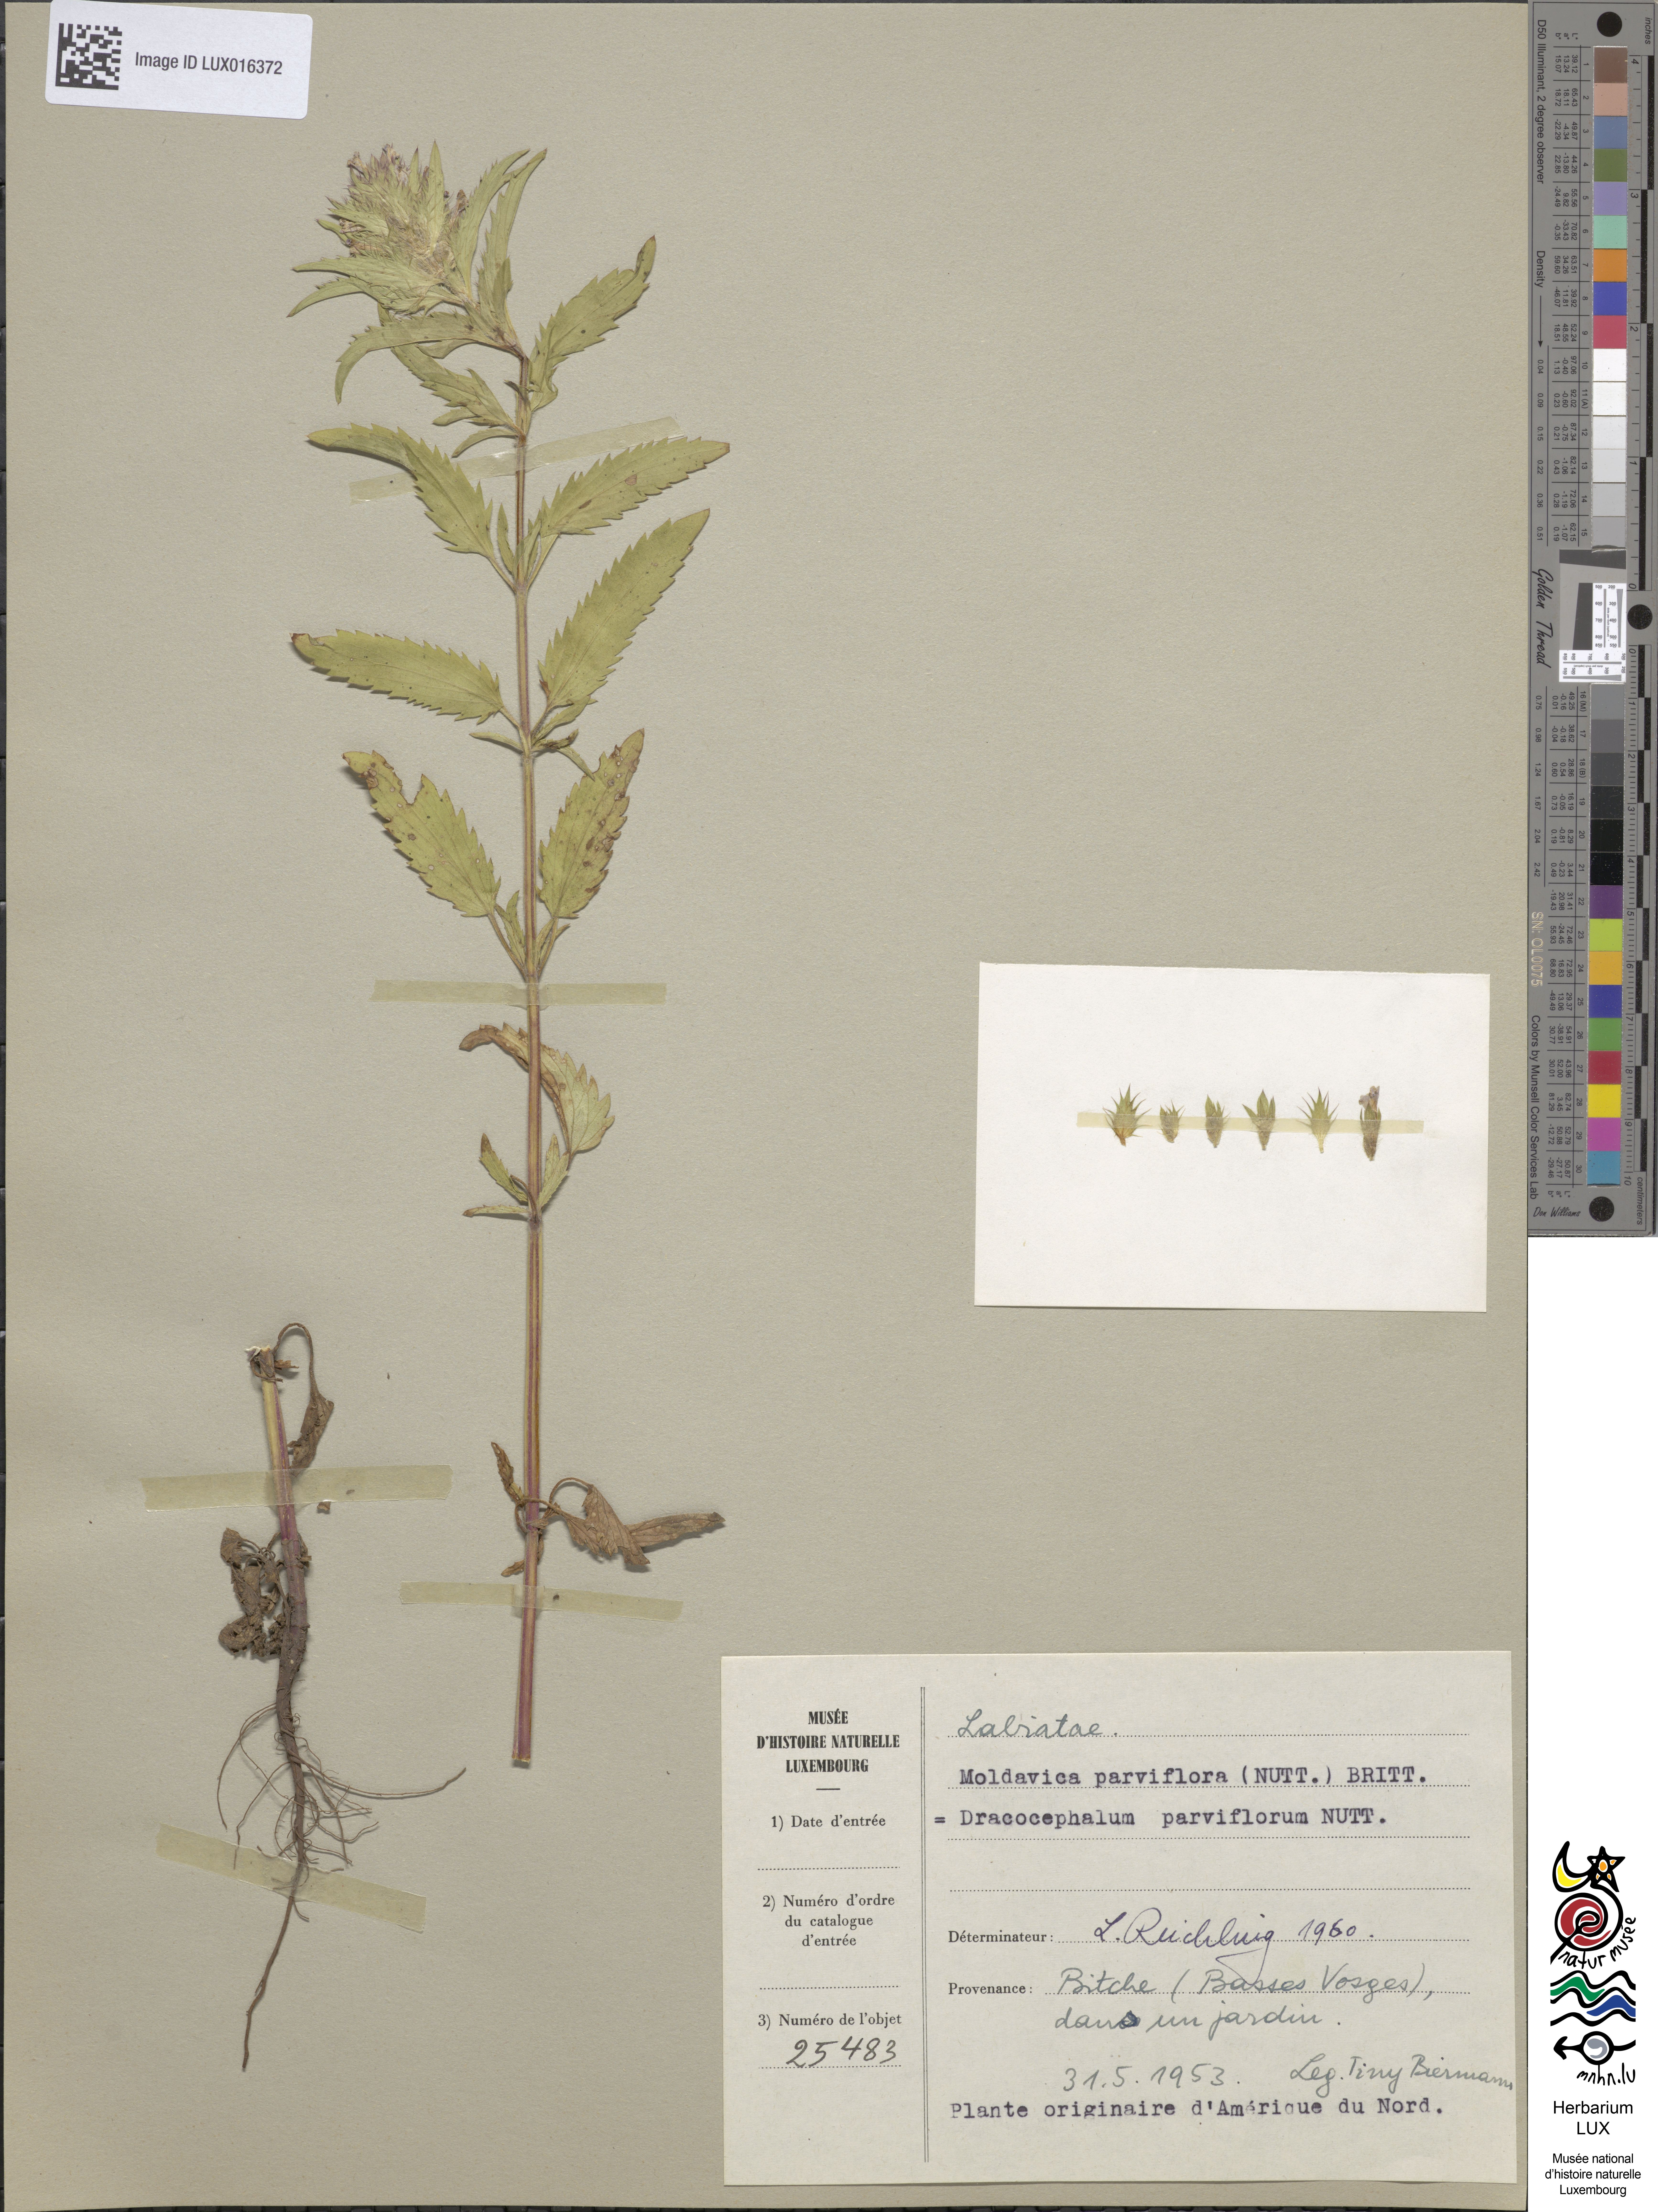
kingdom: Plantae
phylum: Tracheophyta
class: Magnoliopsida
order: Lamiales
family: Lamiaceae
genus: Physostegia
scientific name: Physostegia parviflora
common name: American dragonhead
